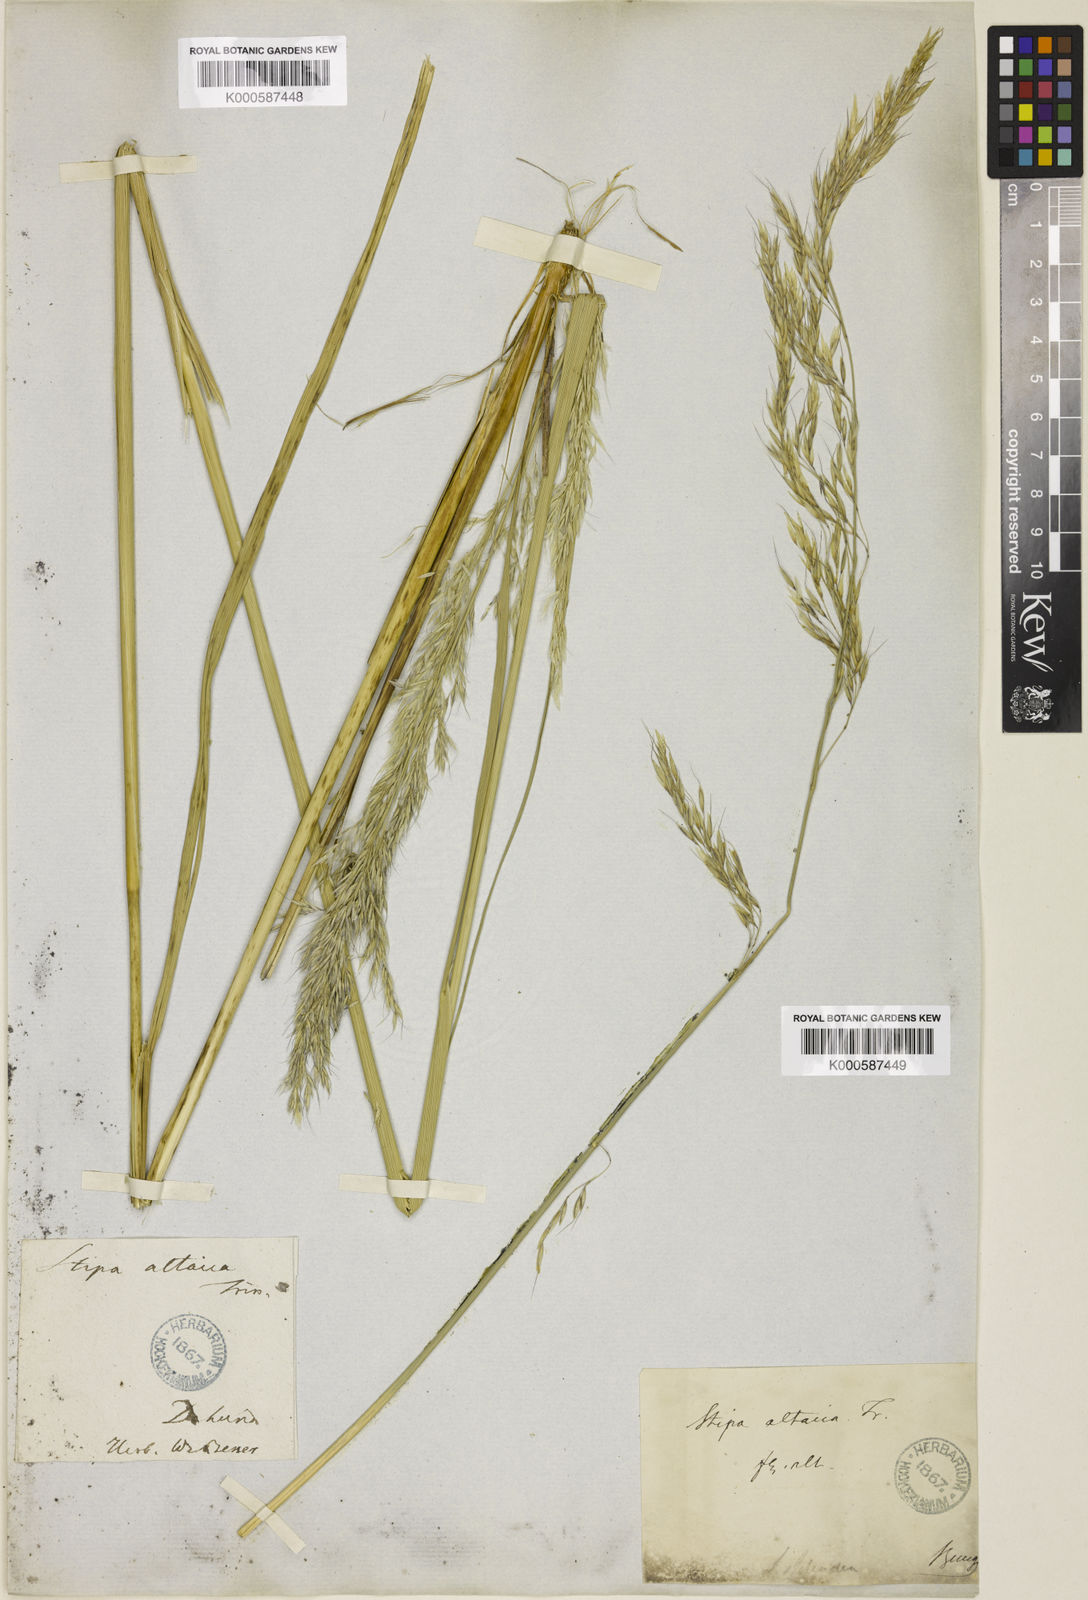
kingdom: Plantae
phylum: Tracheophyta
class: Liliopsida
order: Poales
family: Poaceae
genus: Neotrinia
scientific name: Neotrinia splendens
